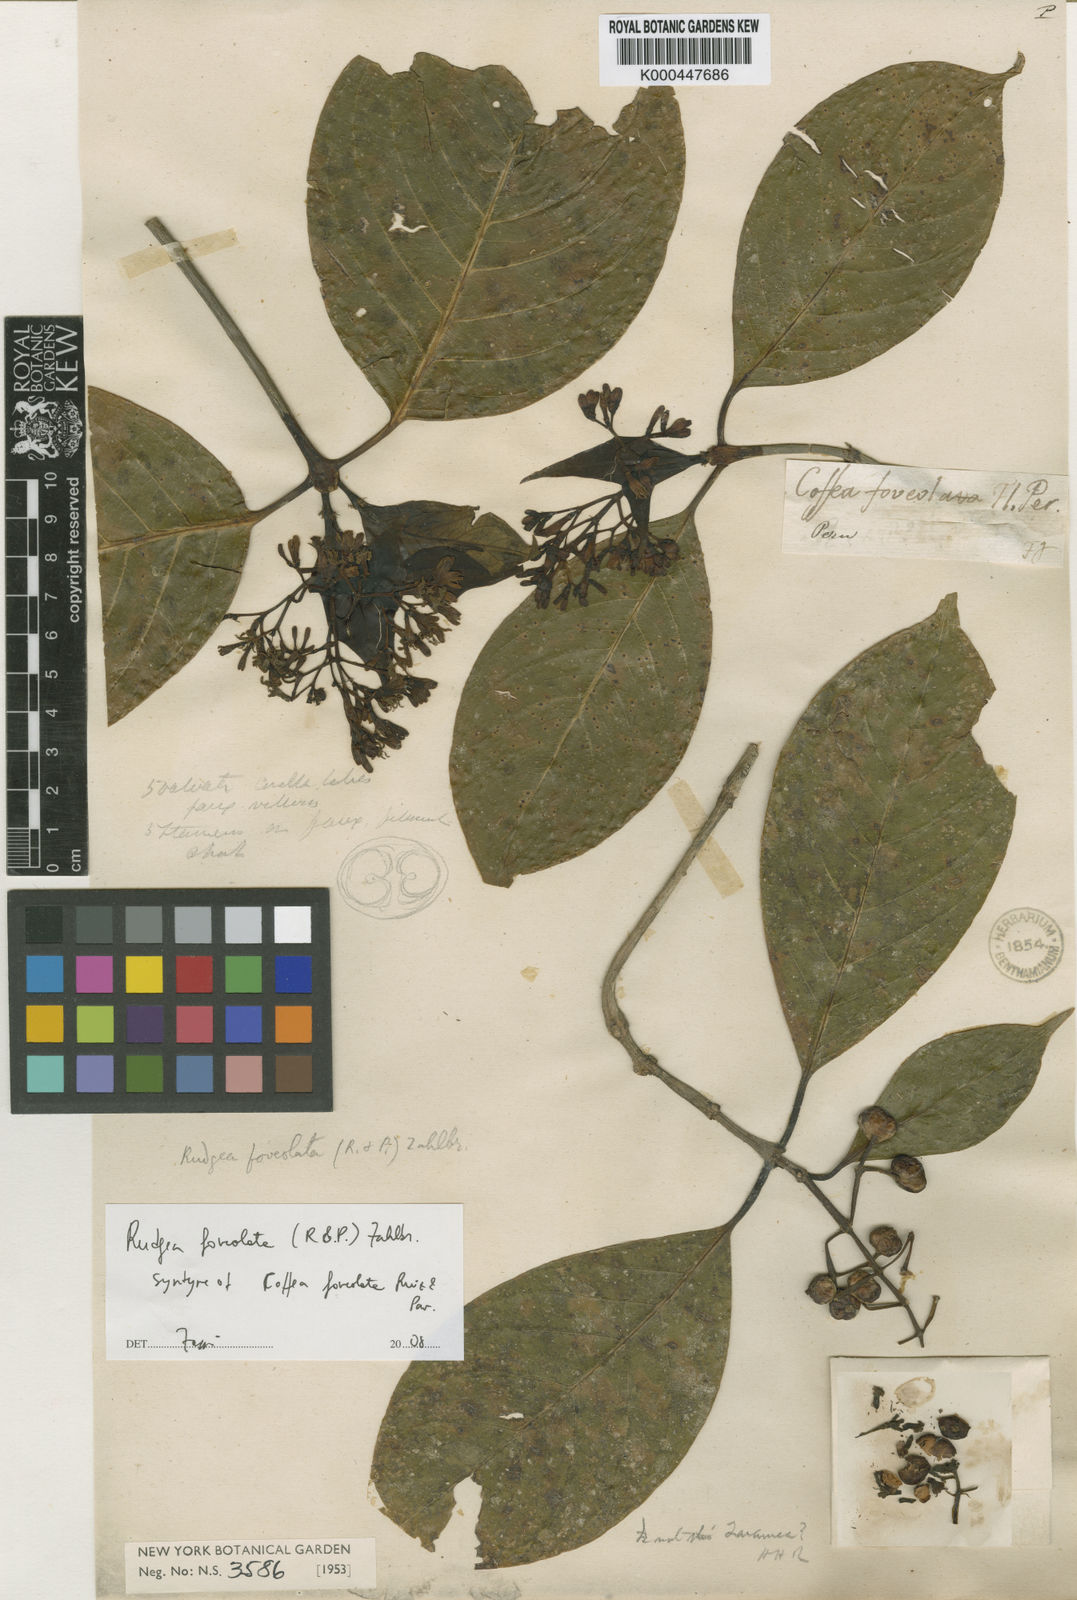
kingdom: Plantae
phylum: Tracheophyta
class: Magnoliopsida
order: Gentianales
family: Rubiaceae
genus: Rudgea
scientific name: Rudgea foveolata
